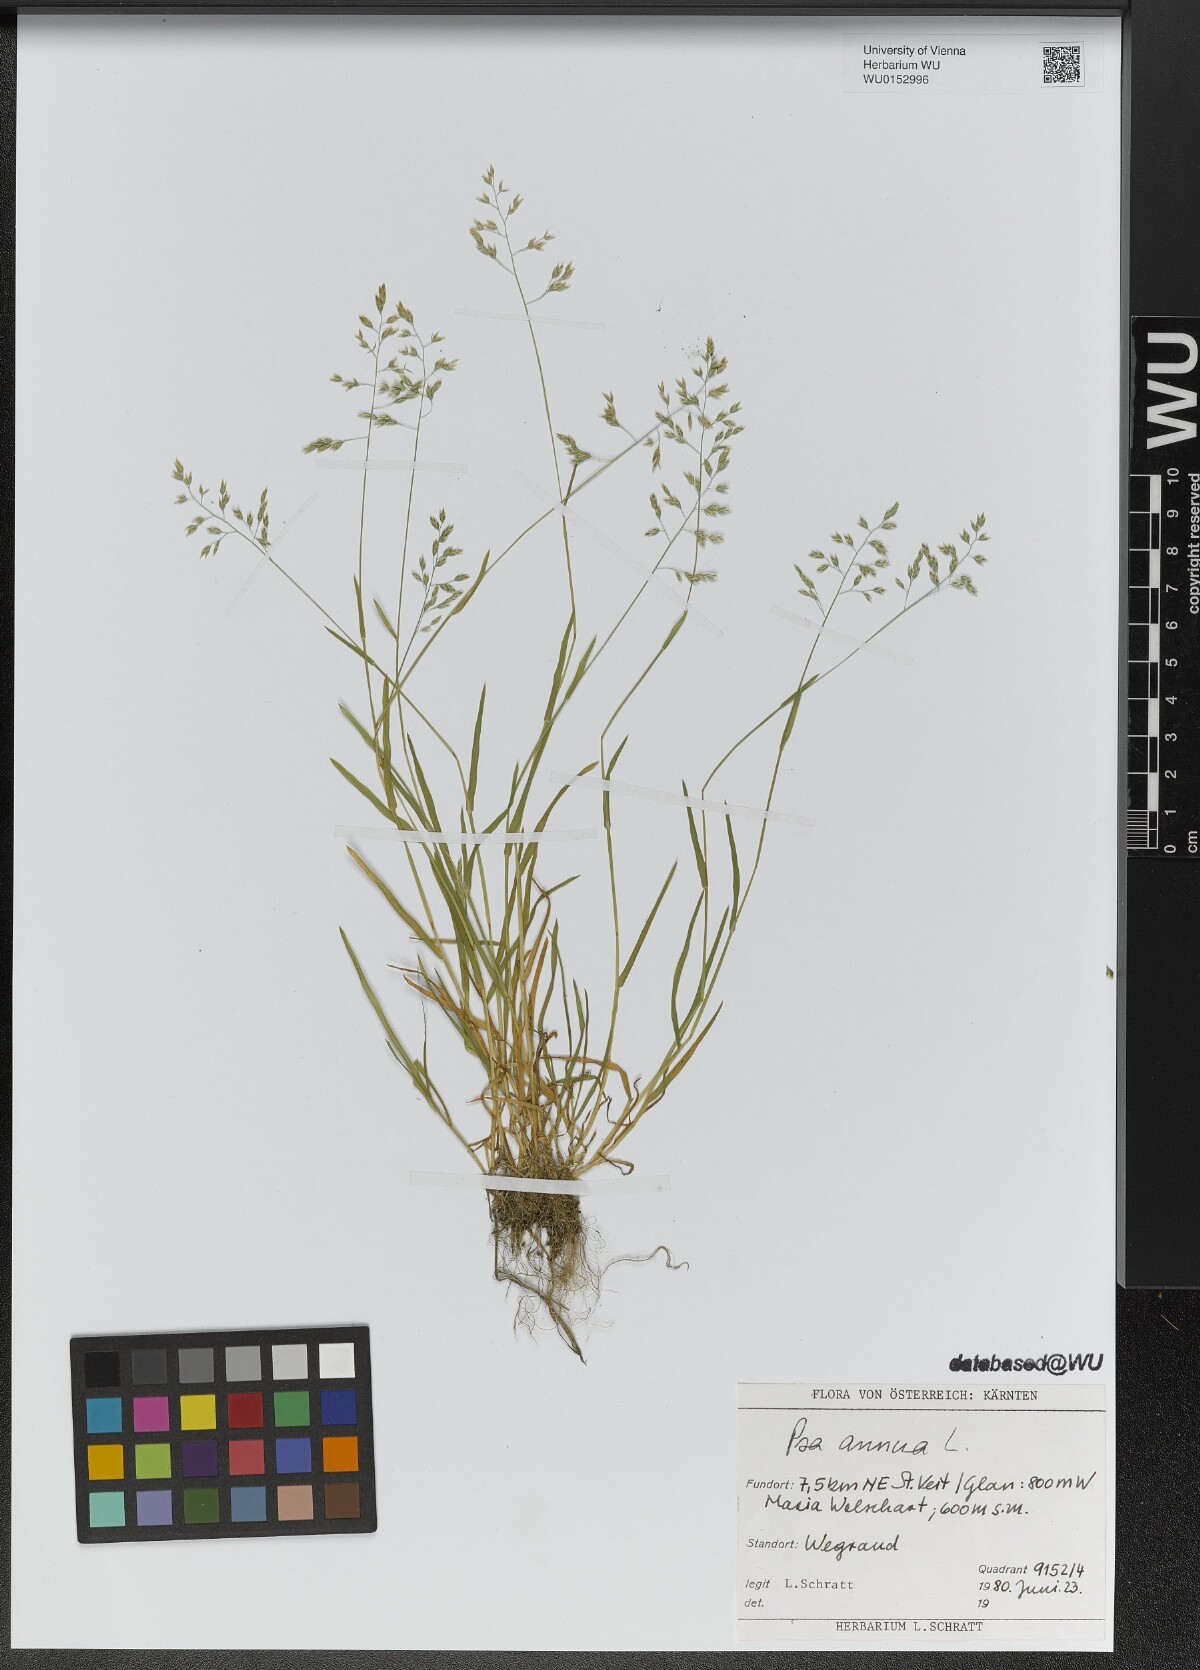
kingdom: Plantae
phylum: Tracheophyta
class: Liliopsida
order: Poales
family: Poaceae
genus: Poa
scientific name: Poa annua
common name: Annual bluegrass
